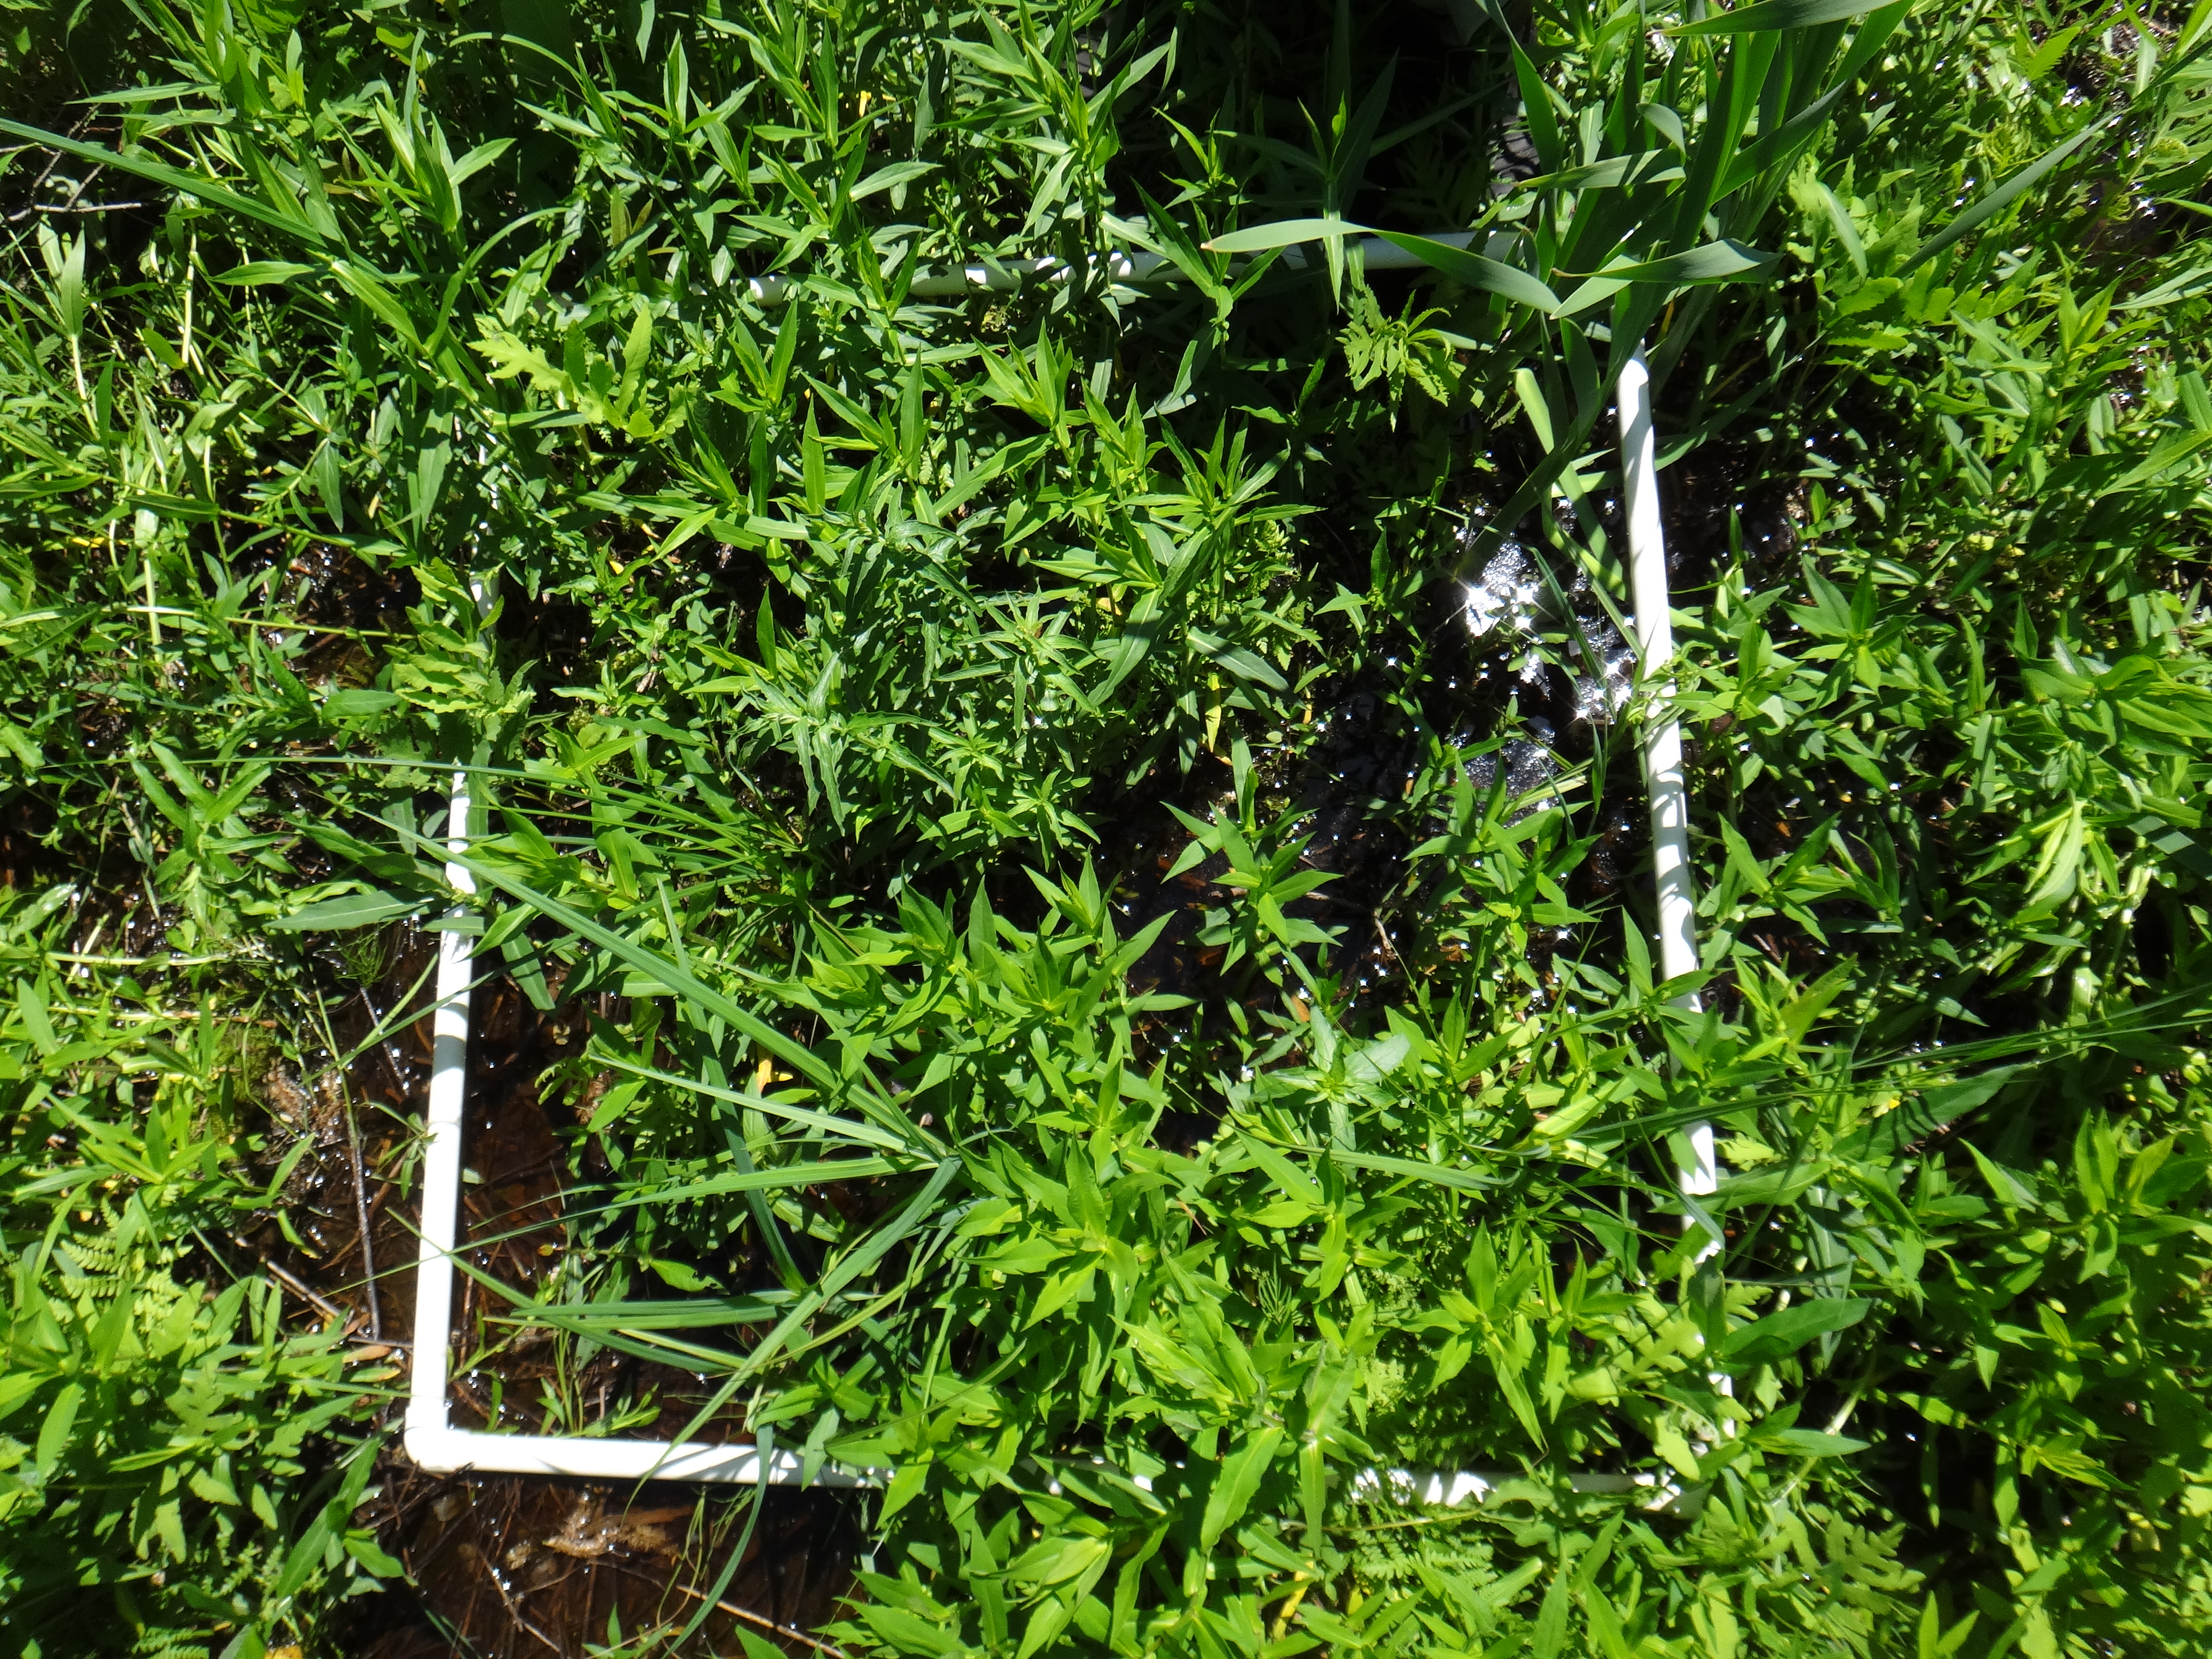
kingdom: Plantae
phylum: Tracheophyta
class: Magnoliopsida
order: Caryophyllales
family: Polygonaceae
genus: Persicaria
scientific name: Persicaria amphibia
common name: Amphibious bistort
